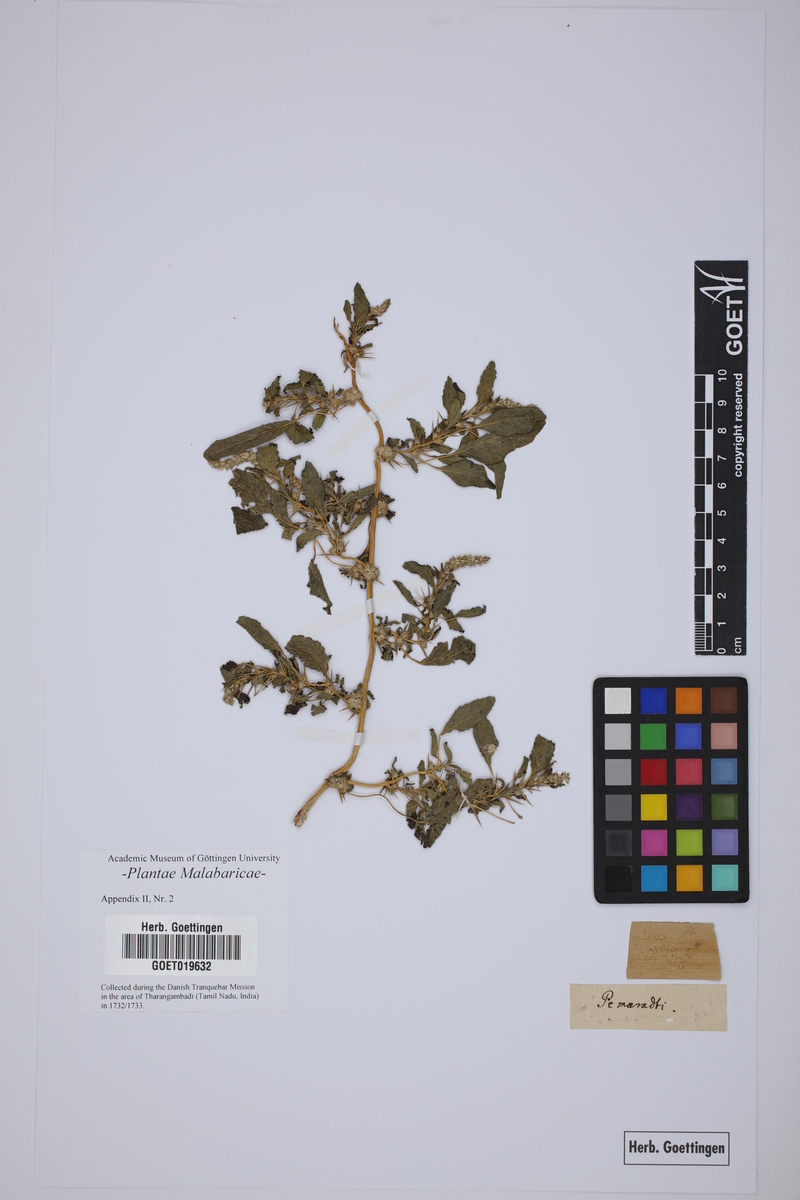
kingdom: Plantae
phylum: Tracheophyta
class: Magnoliopsida
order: Lamiales
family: Lamiaceae
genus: Anisomeles
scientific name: Anisomeles malabarica
